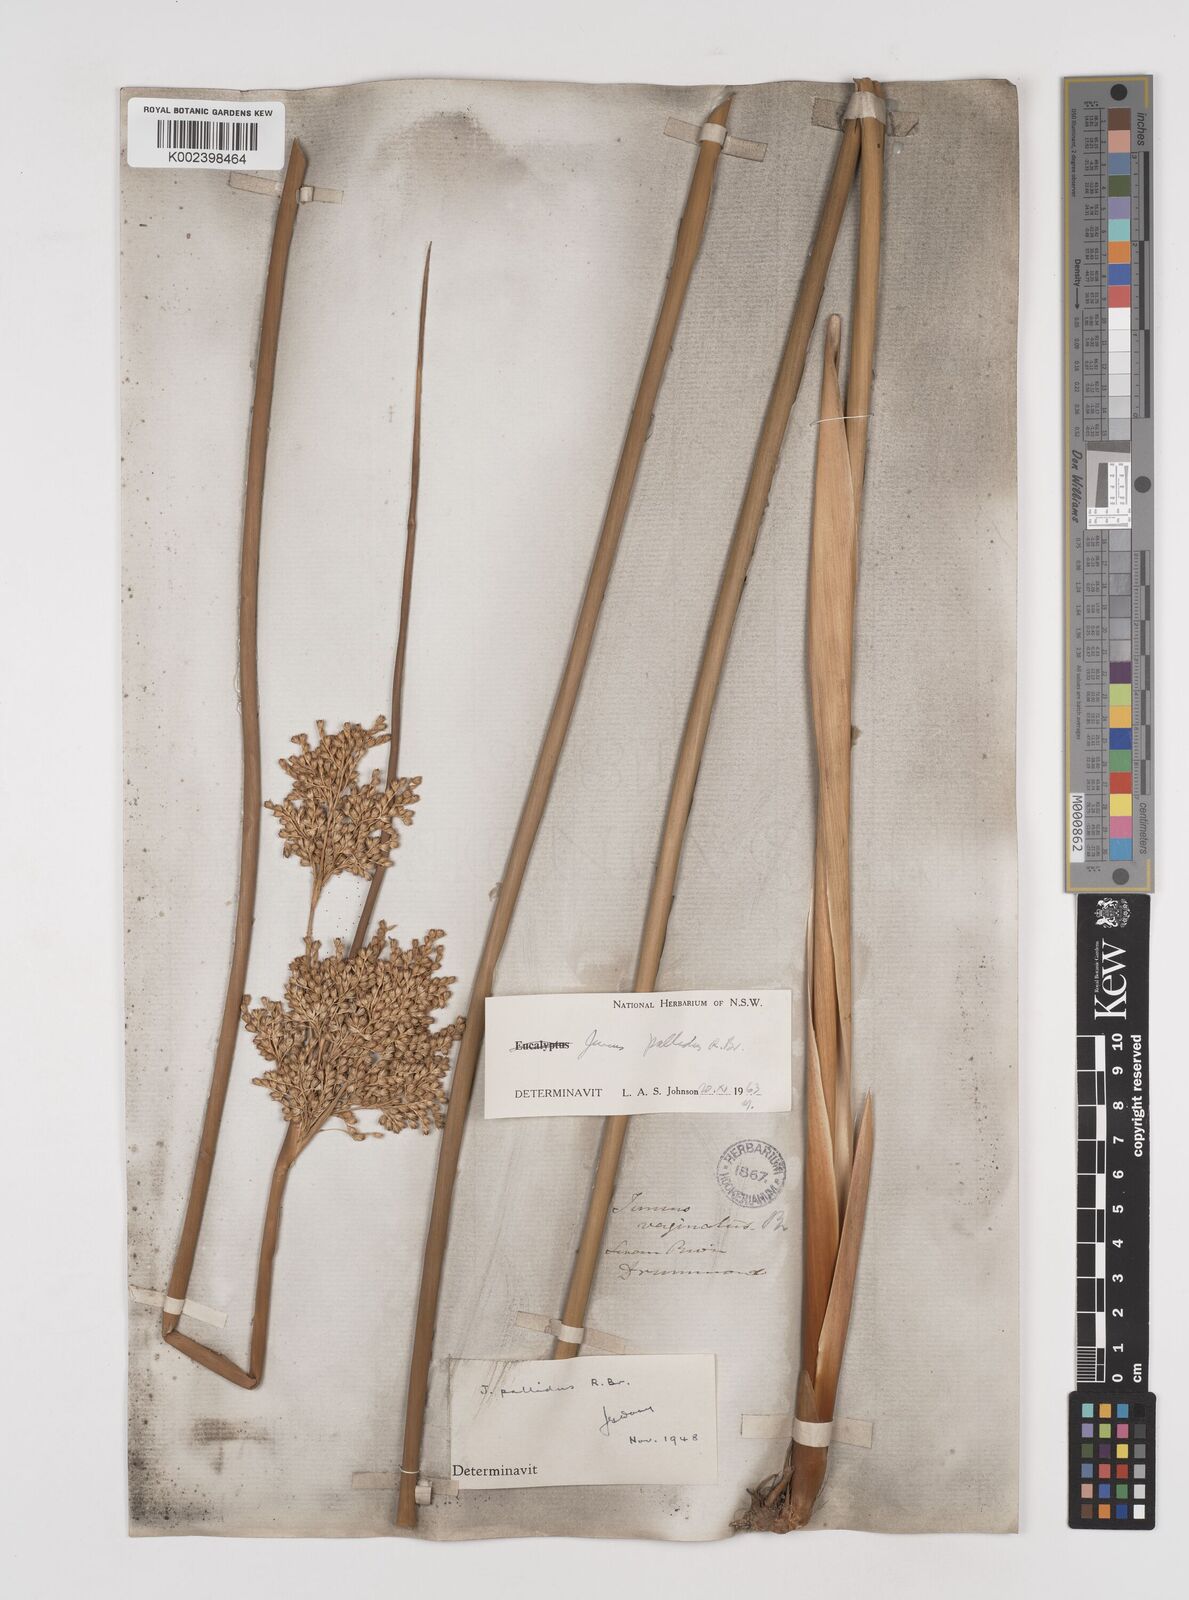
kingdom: Plantae
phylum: Tracheophyta
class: Liliopsida
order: Poales
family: Juncaceae
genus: Juncus
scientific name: Juncus pallidus
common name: Great soft-rush
